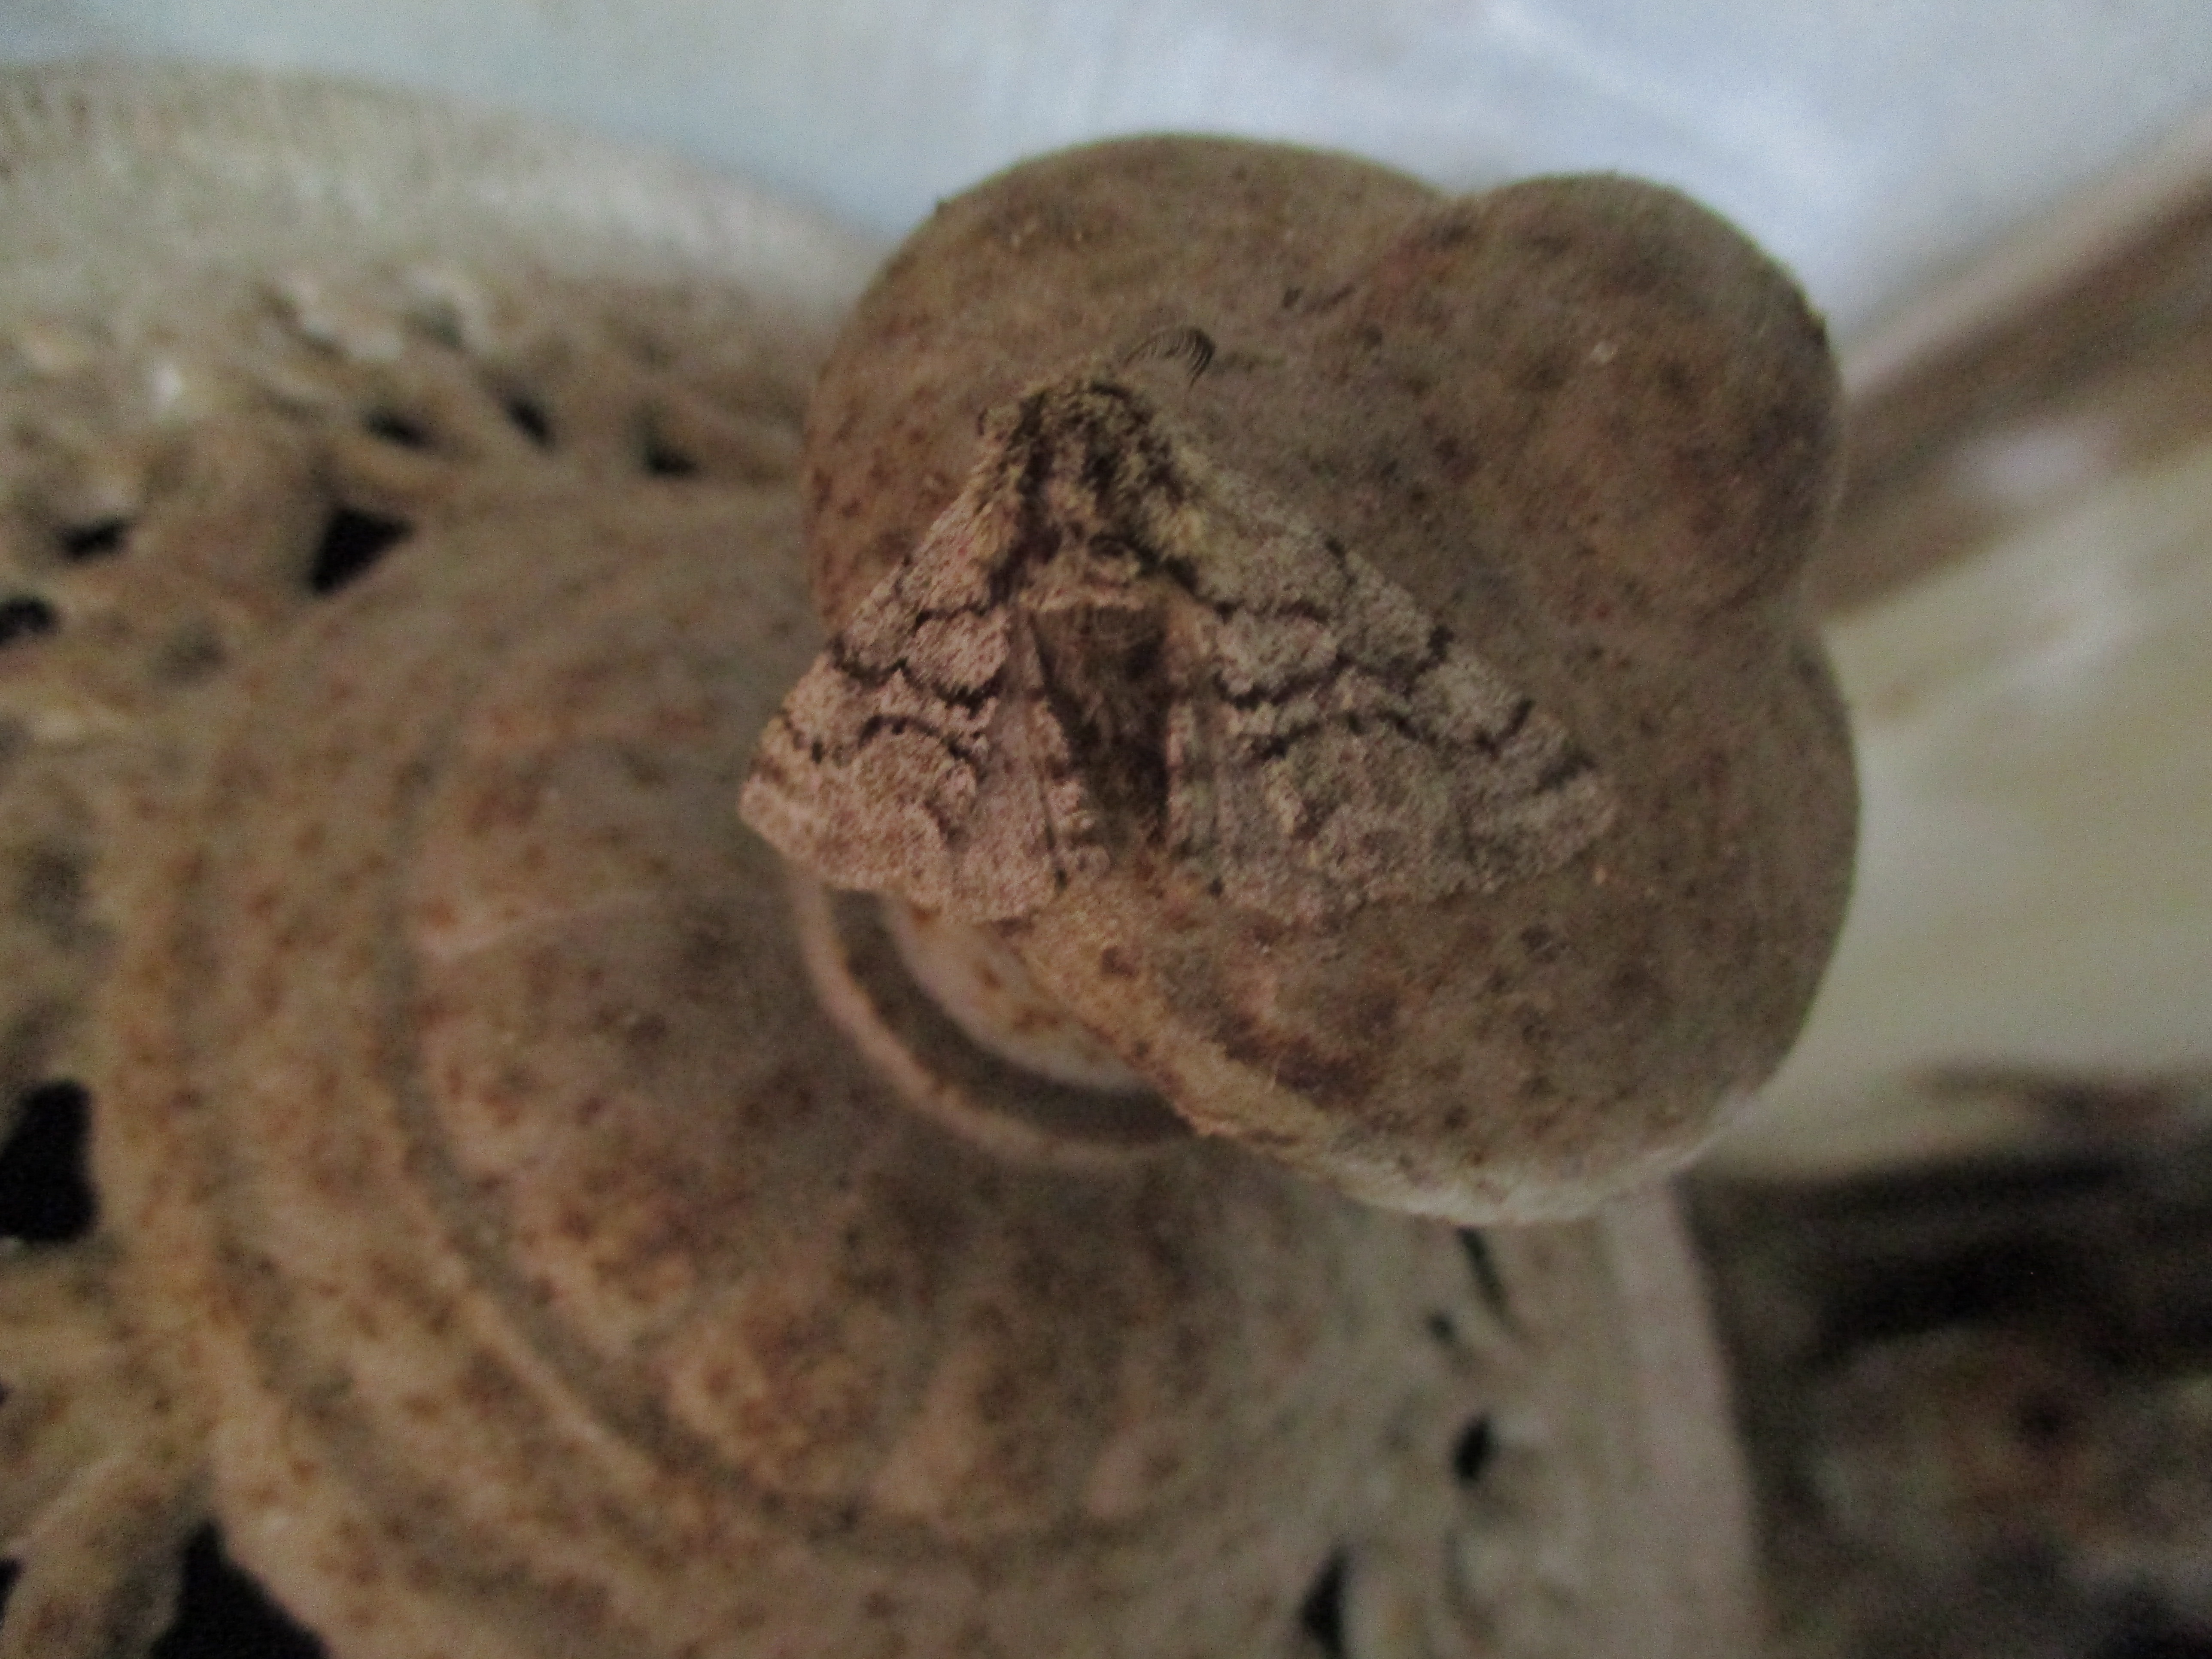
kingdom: Animalia
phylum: Arthropoda
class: Insecta
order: Lepidoptera
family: Geometridae
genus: Lycia
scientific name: Lycia hirtaria
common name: Brindled beauty
